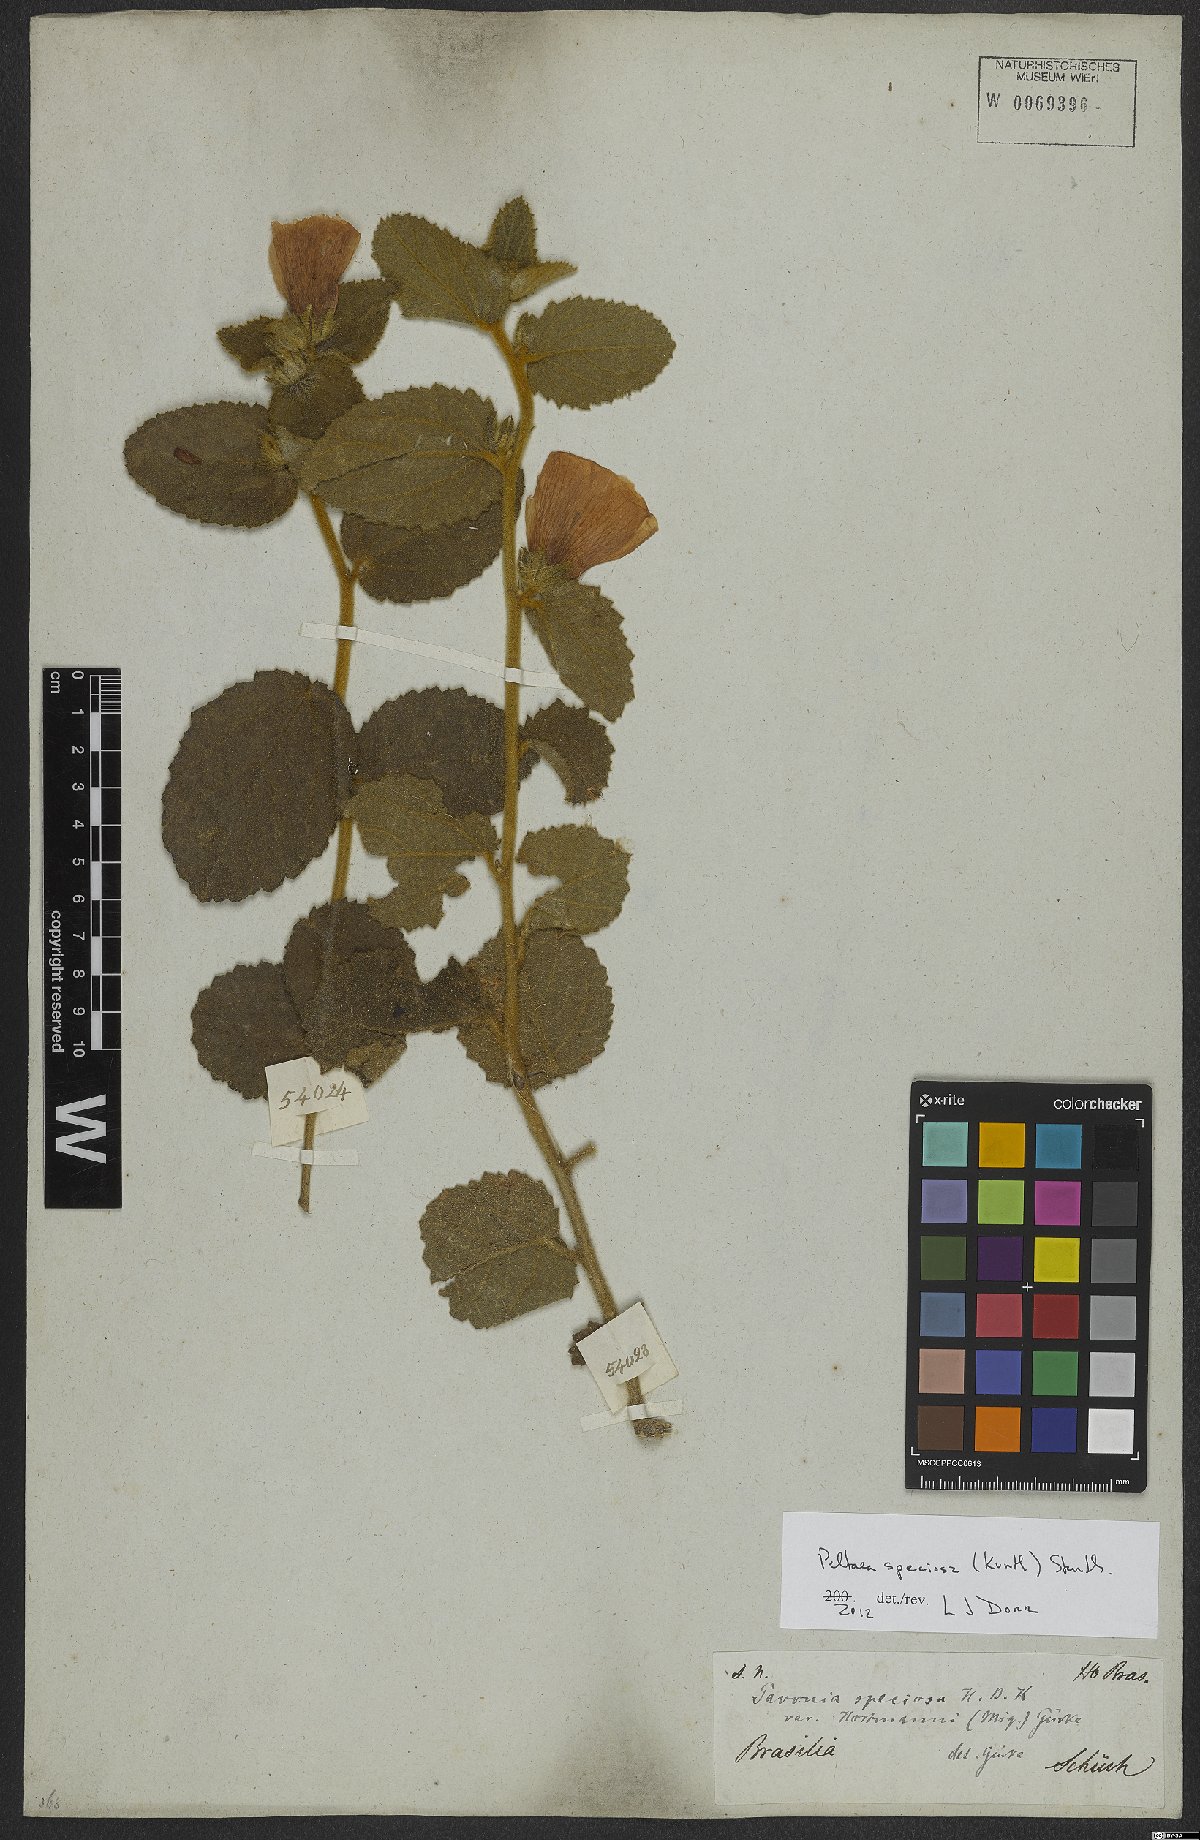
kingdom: Plantae
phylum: Tracheophyta
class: Magnoliopsida
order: Malvales
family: Malvaceae
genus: Peltaea
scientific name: Peltaea speciosa
